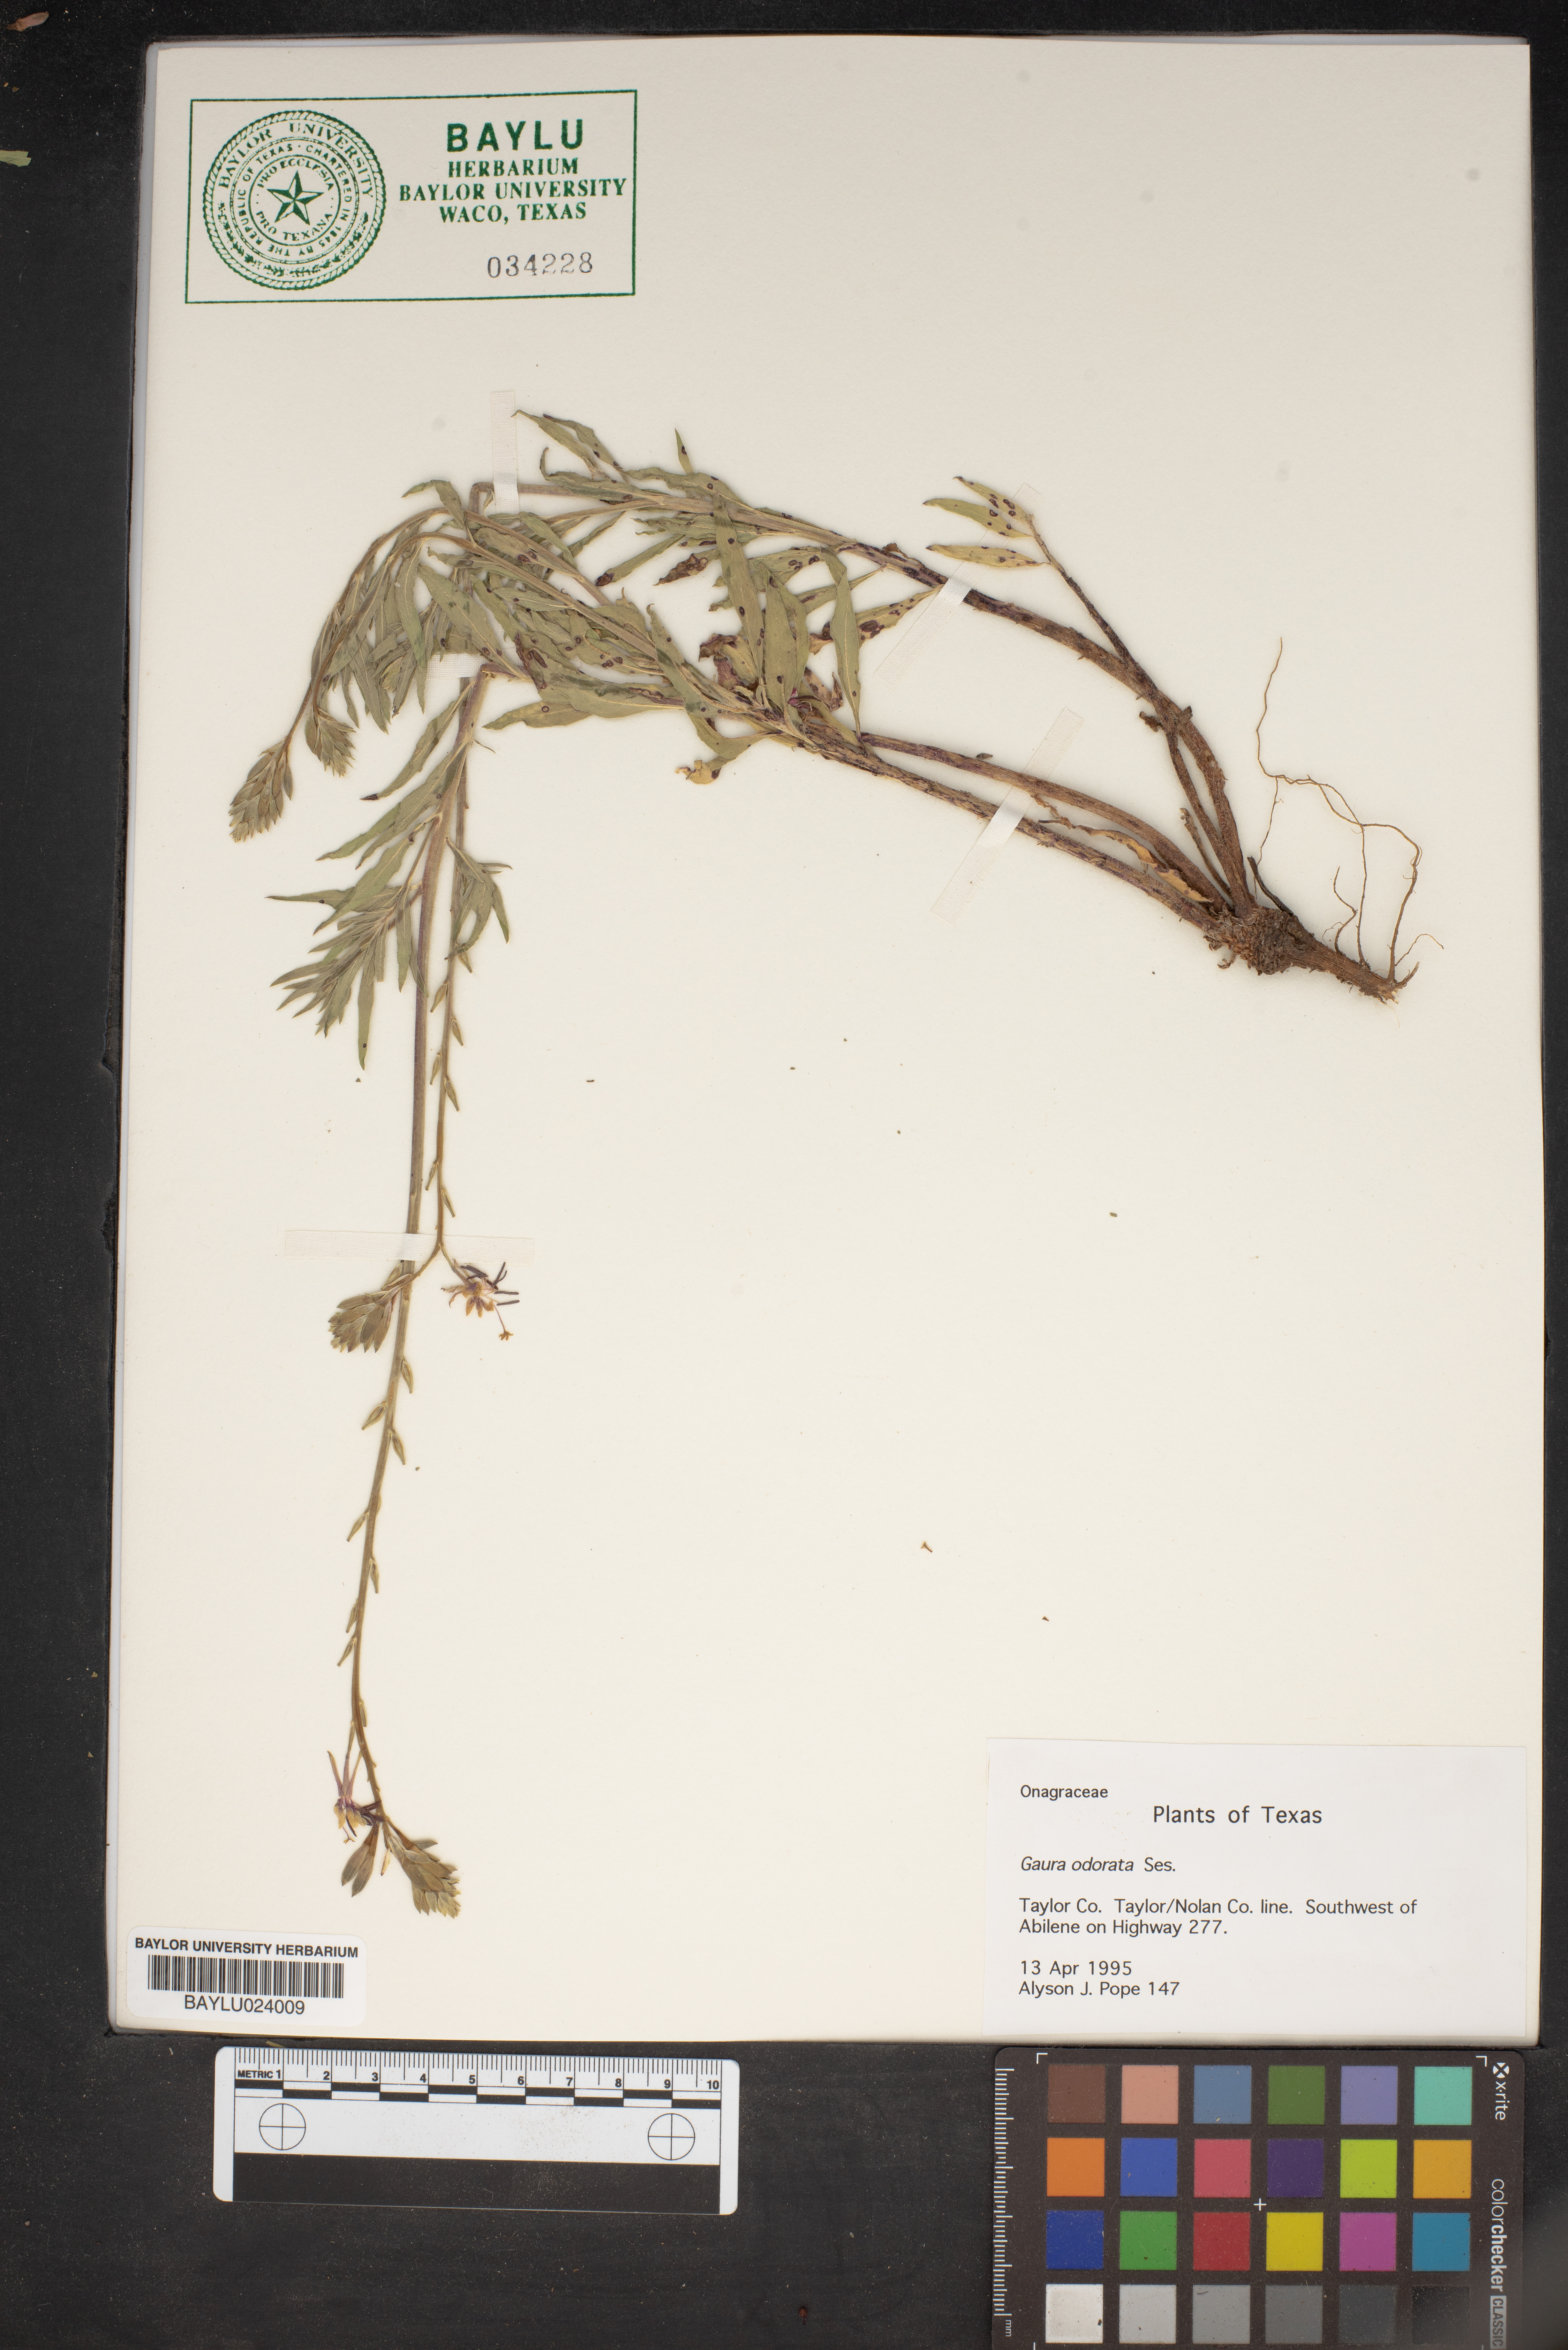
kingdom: Plantae
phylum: Tracheophyta
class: Magnoliopsida
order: Myrtales
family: Onagraceae
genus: Oenothera
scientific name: Oenothera
